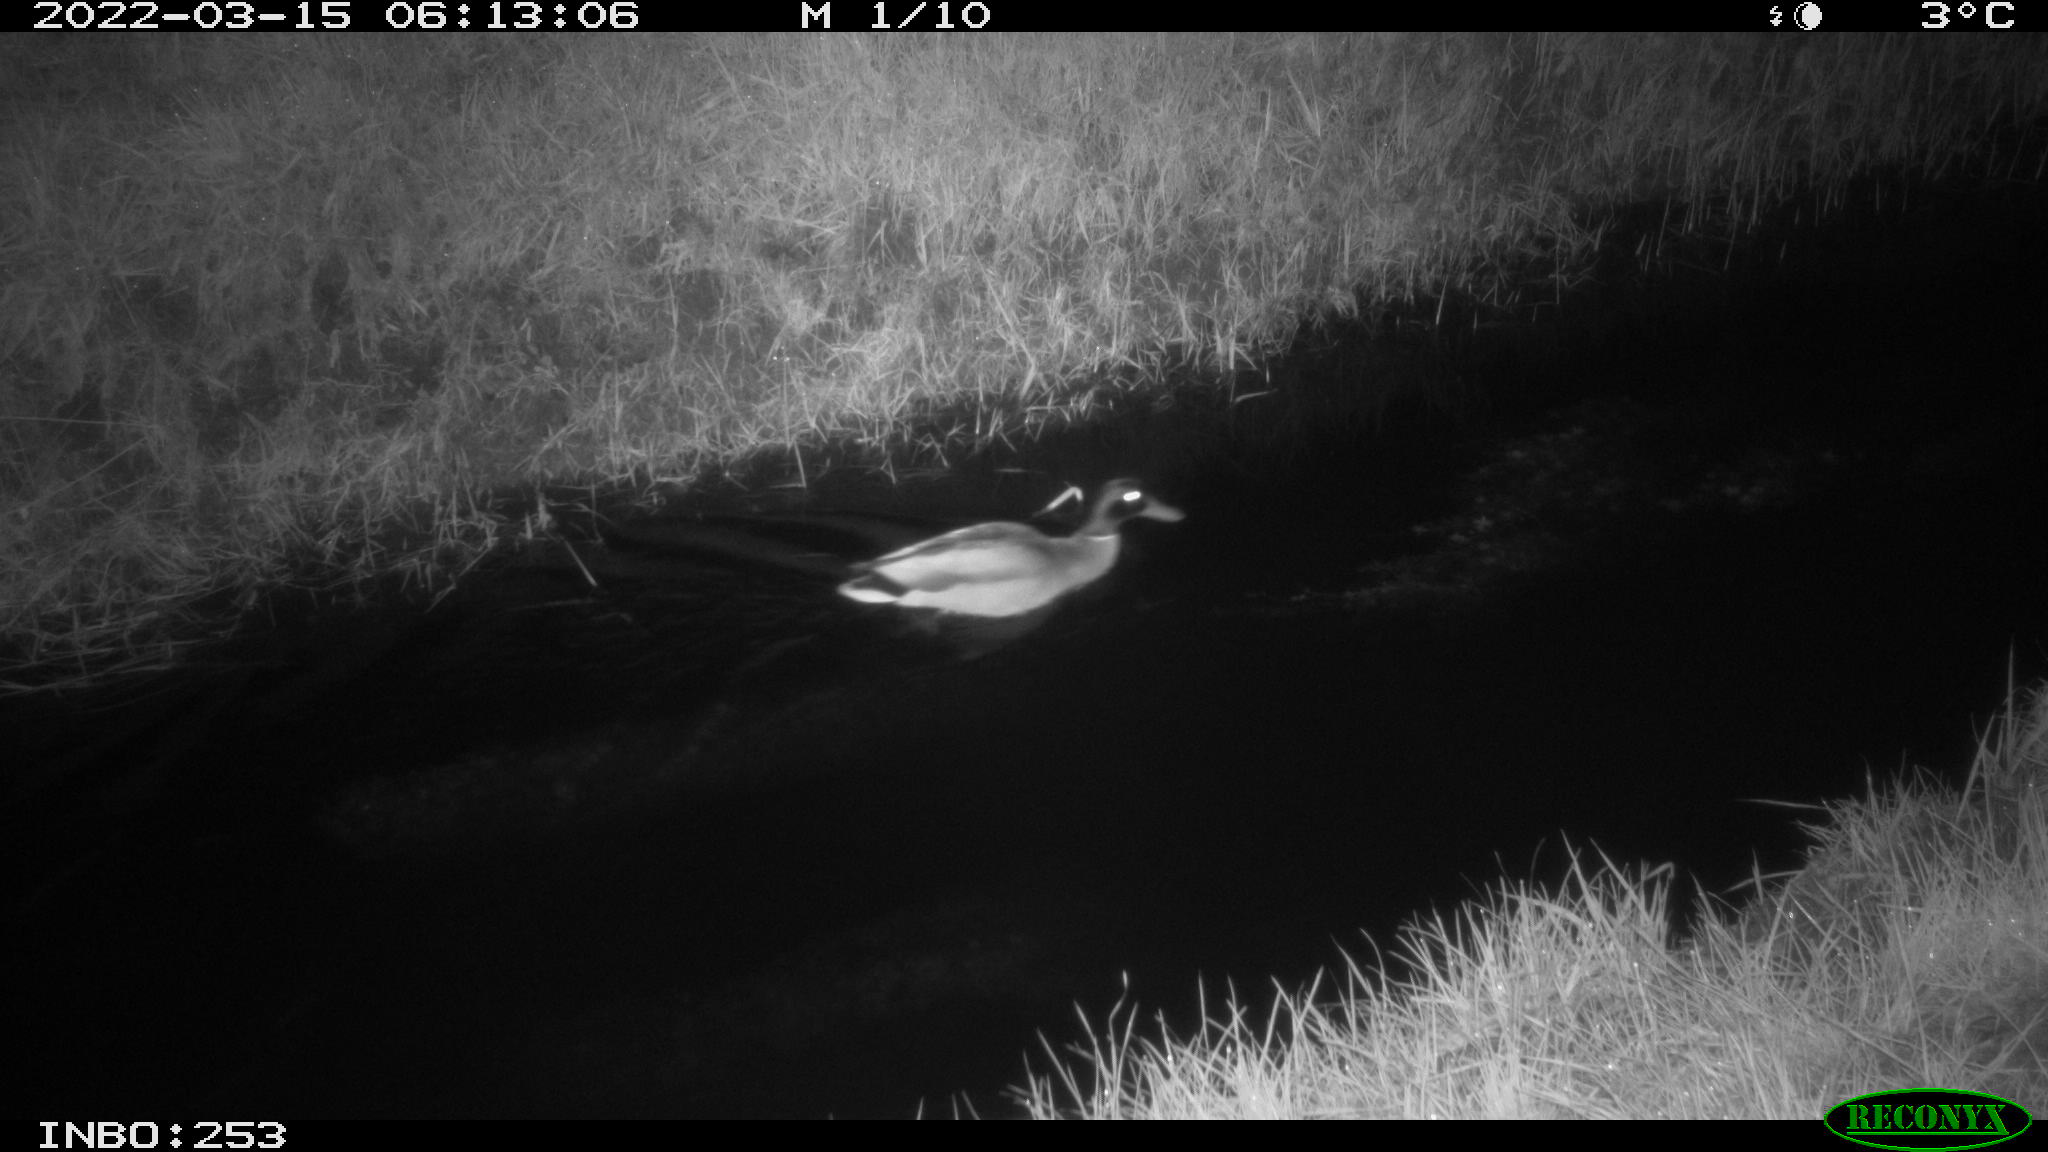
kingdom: Animalia
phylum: Chordata
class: Aves
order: Anseriformes
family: Anatidae
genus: Anas
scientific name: Anas platyrhynchos
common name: Mallard
